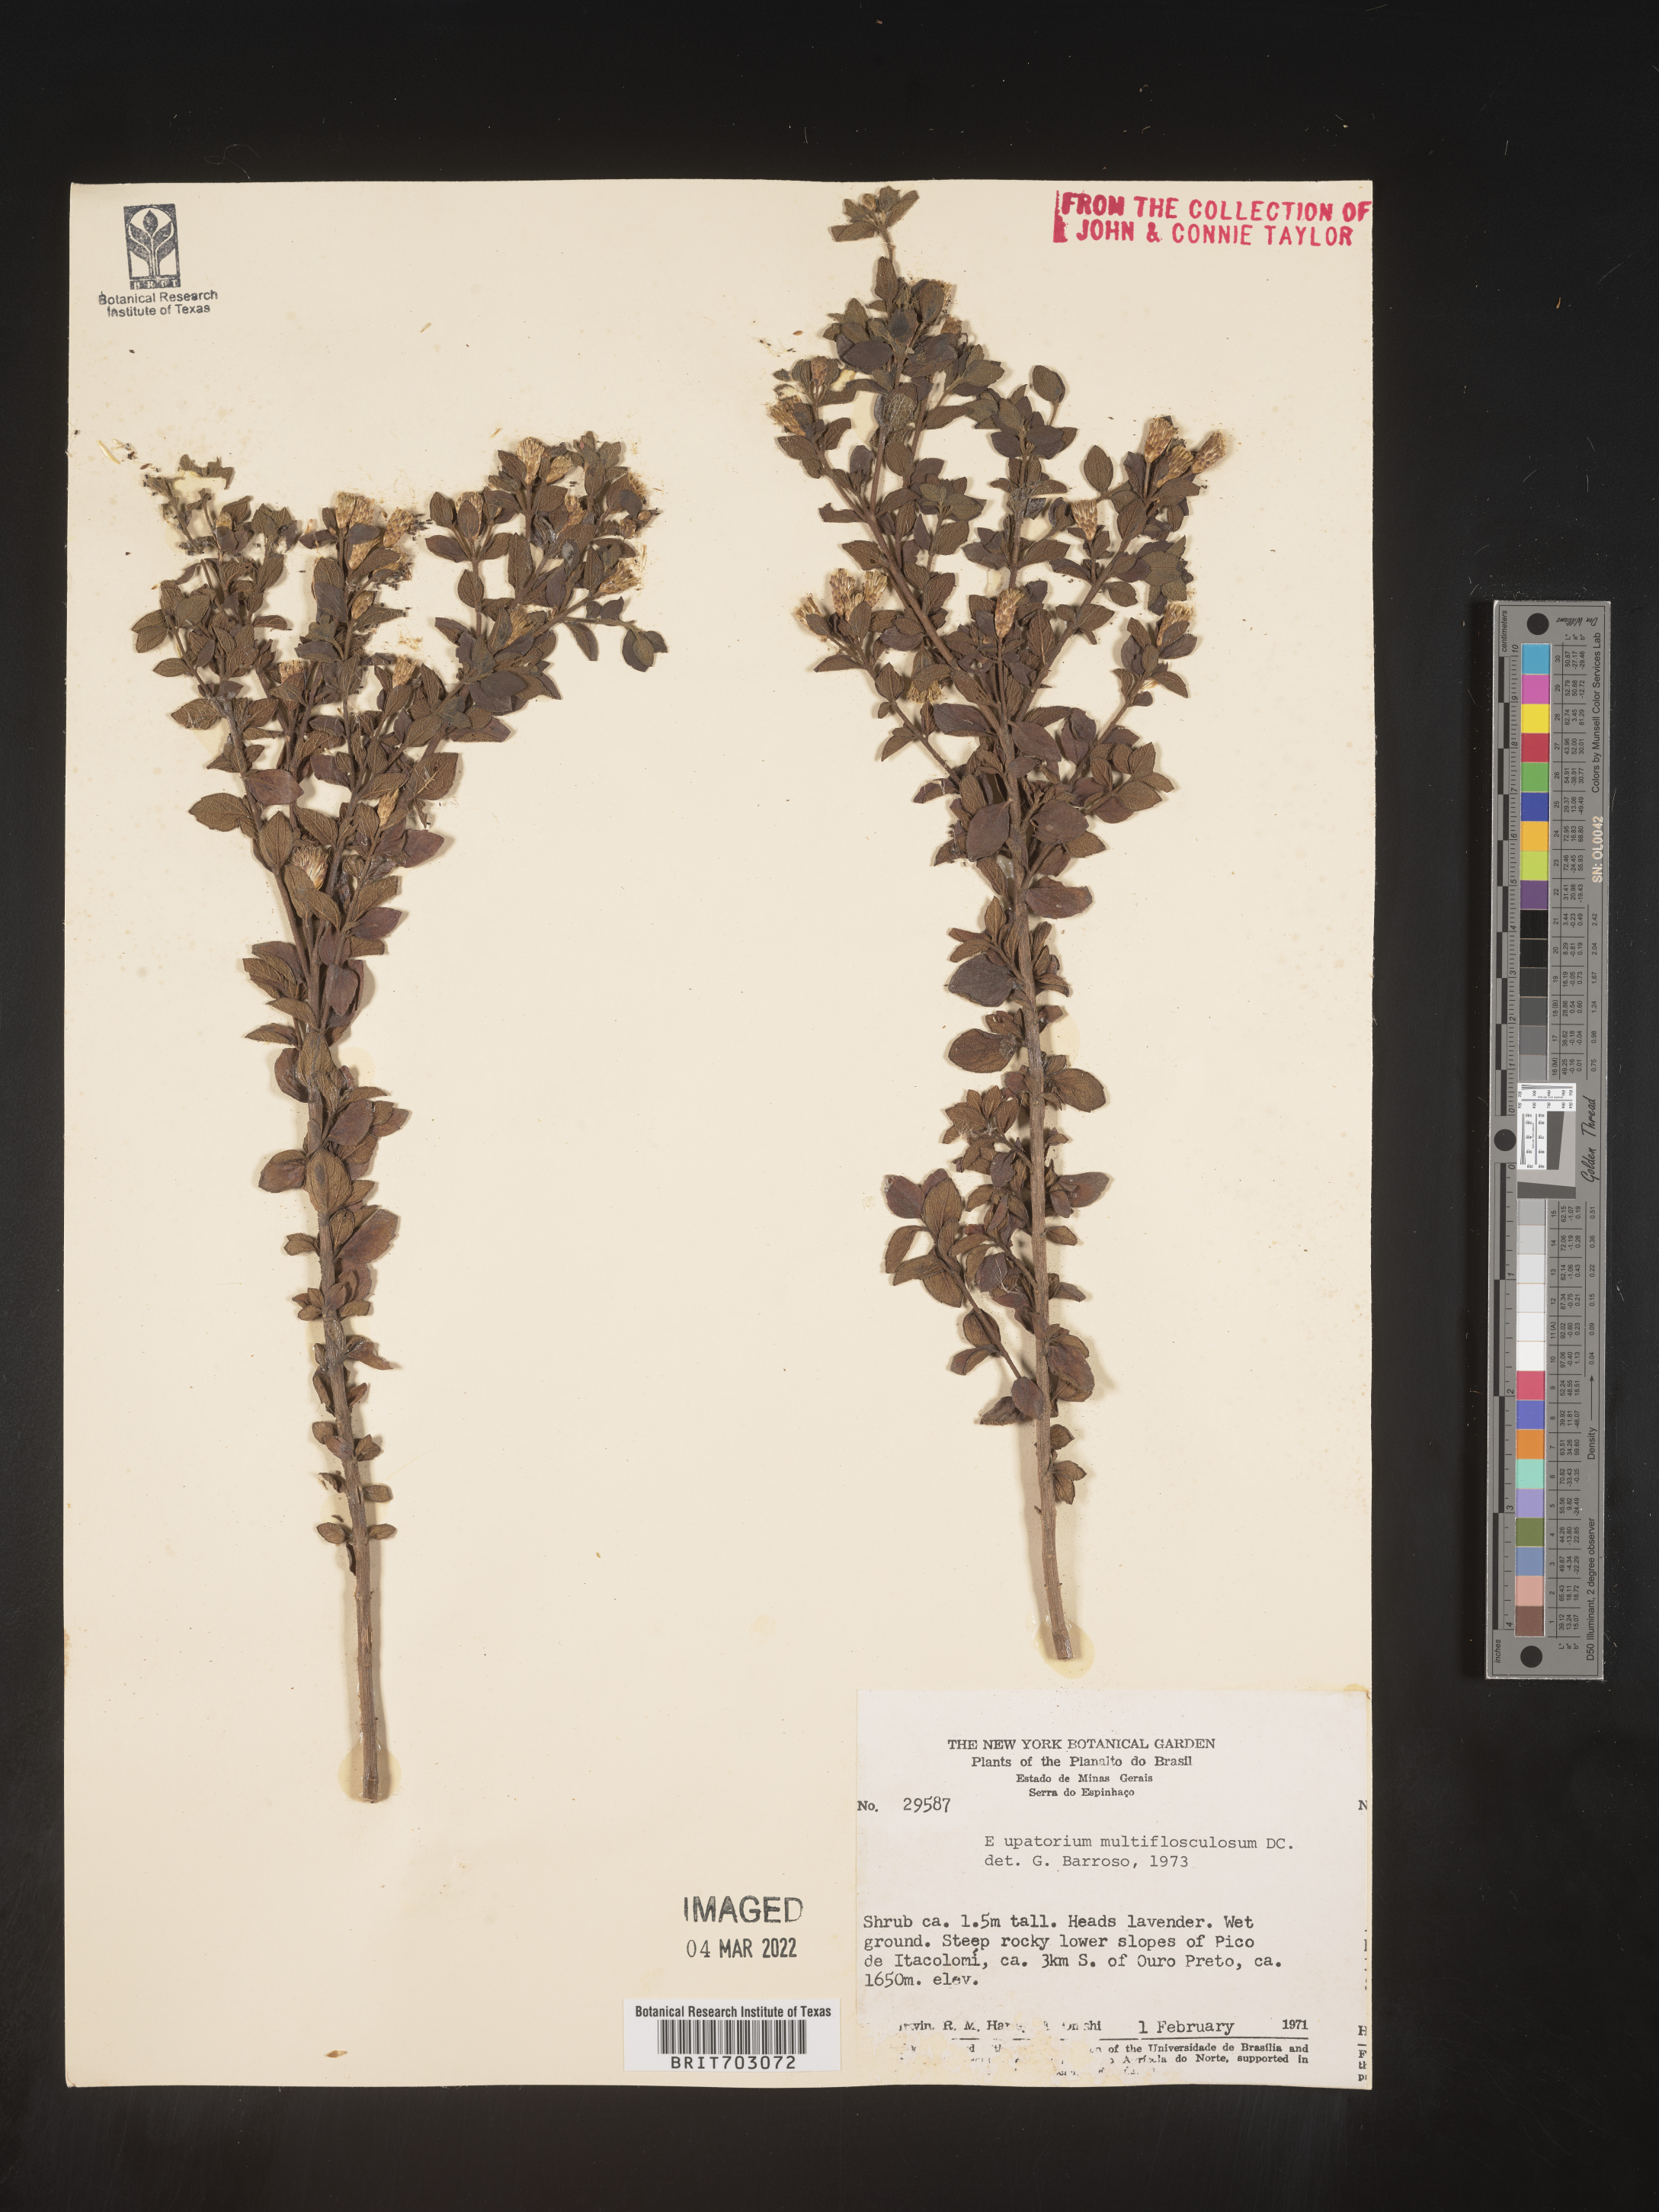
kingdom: Plantae
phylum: Tracheophyta
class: Magnoliopsida
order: Asterales
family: Asteraceae
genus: Eupatorium
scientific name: Eupatorium
